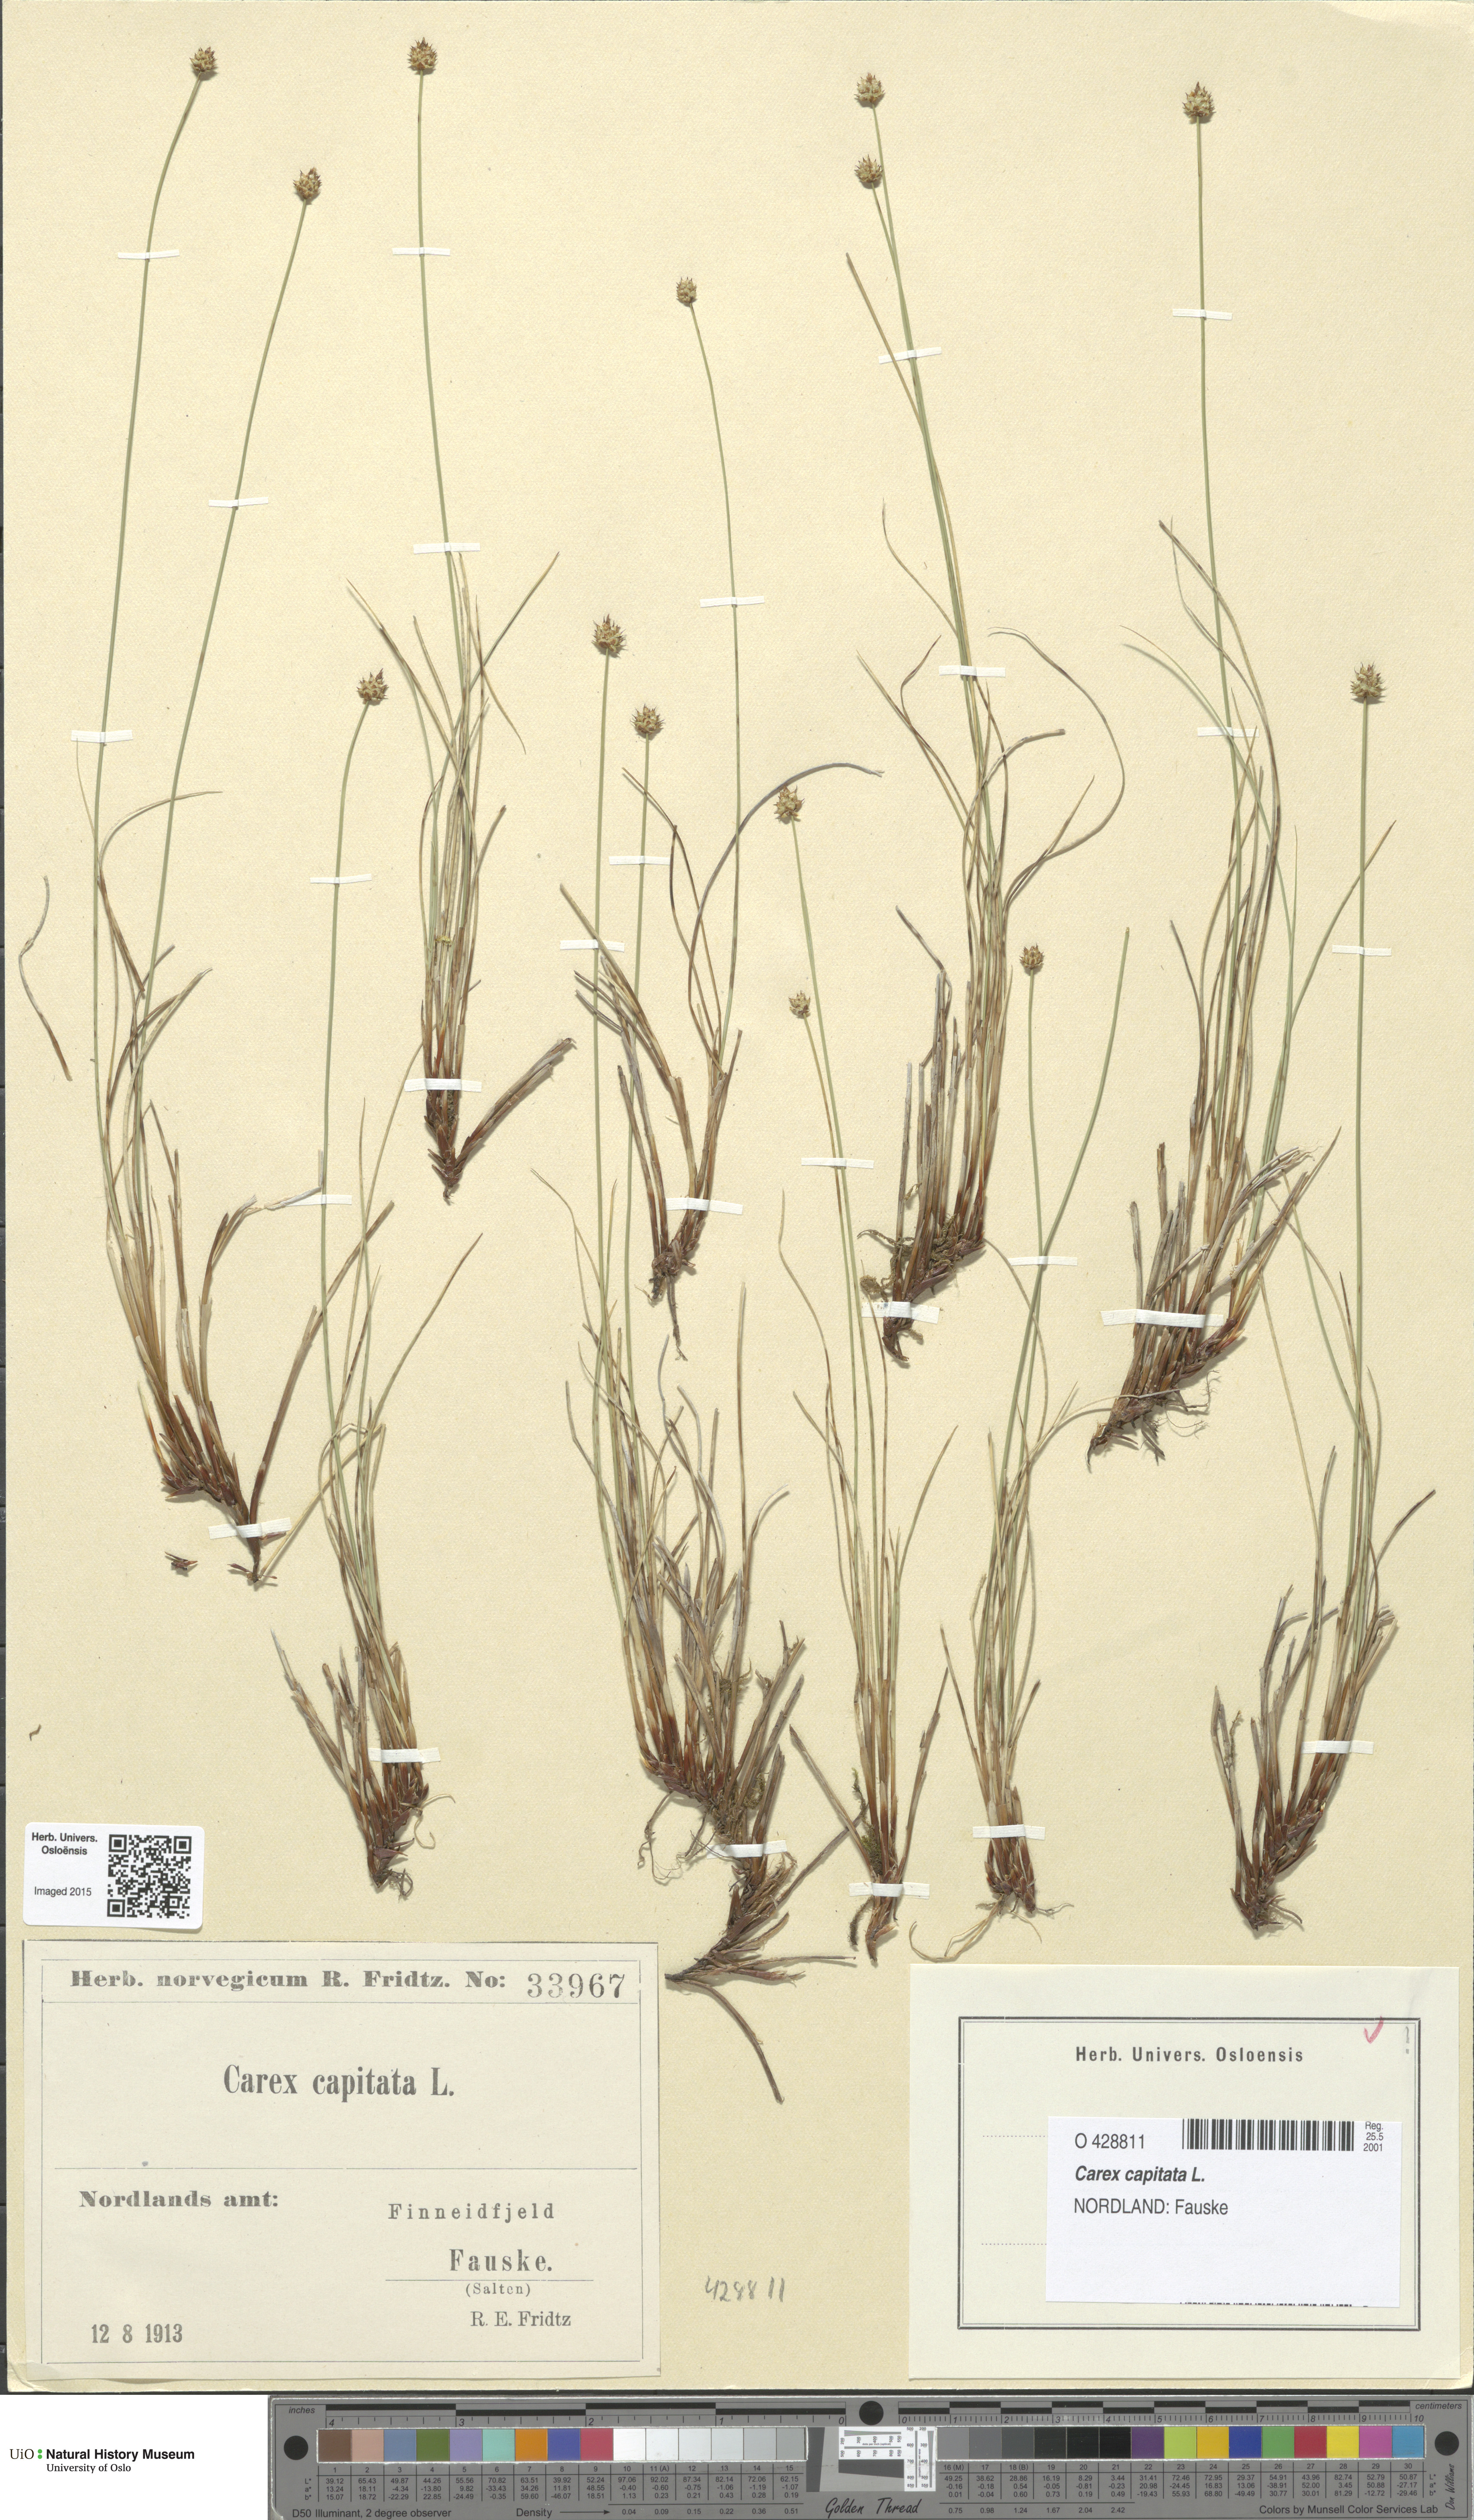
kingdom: Plantae
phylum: Tracheophyta
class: Liliopsida
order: Poales
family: Cyperaceae
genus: Carex
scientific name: Carex capitata
